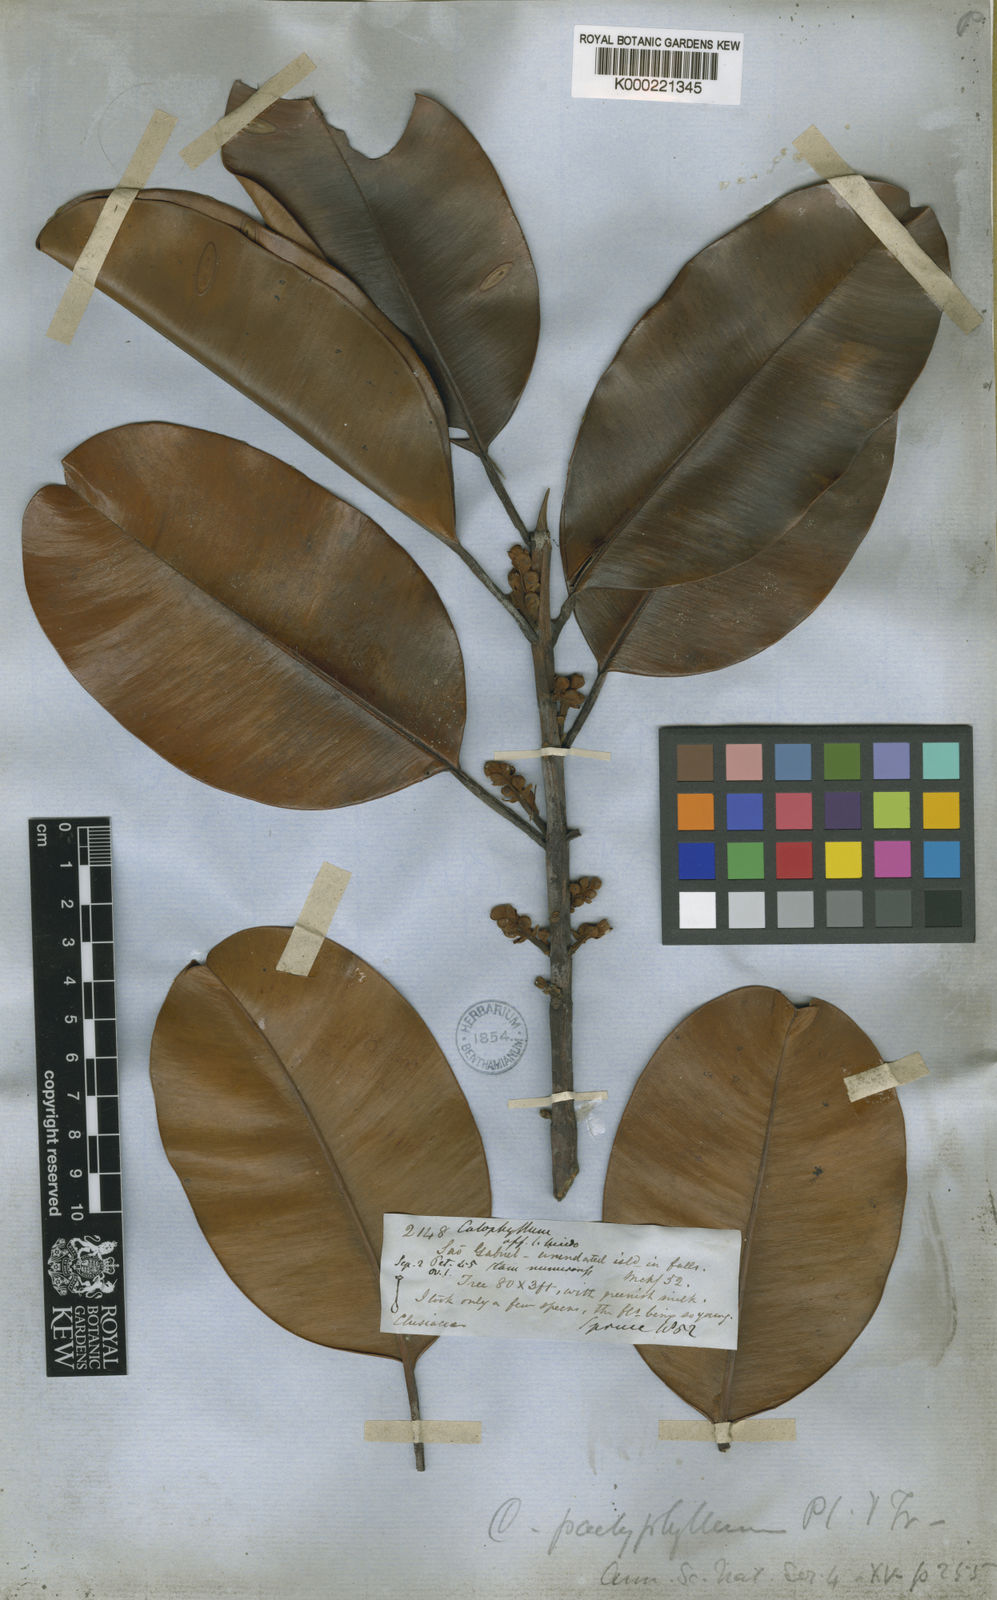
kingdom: Plantae
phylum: Tracheophyta
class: Magnoliopsida
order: Malpighiales
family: Calophyllaceae
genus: Calophyllum
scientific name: Calophyllum pachyphyllum
